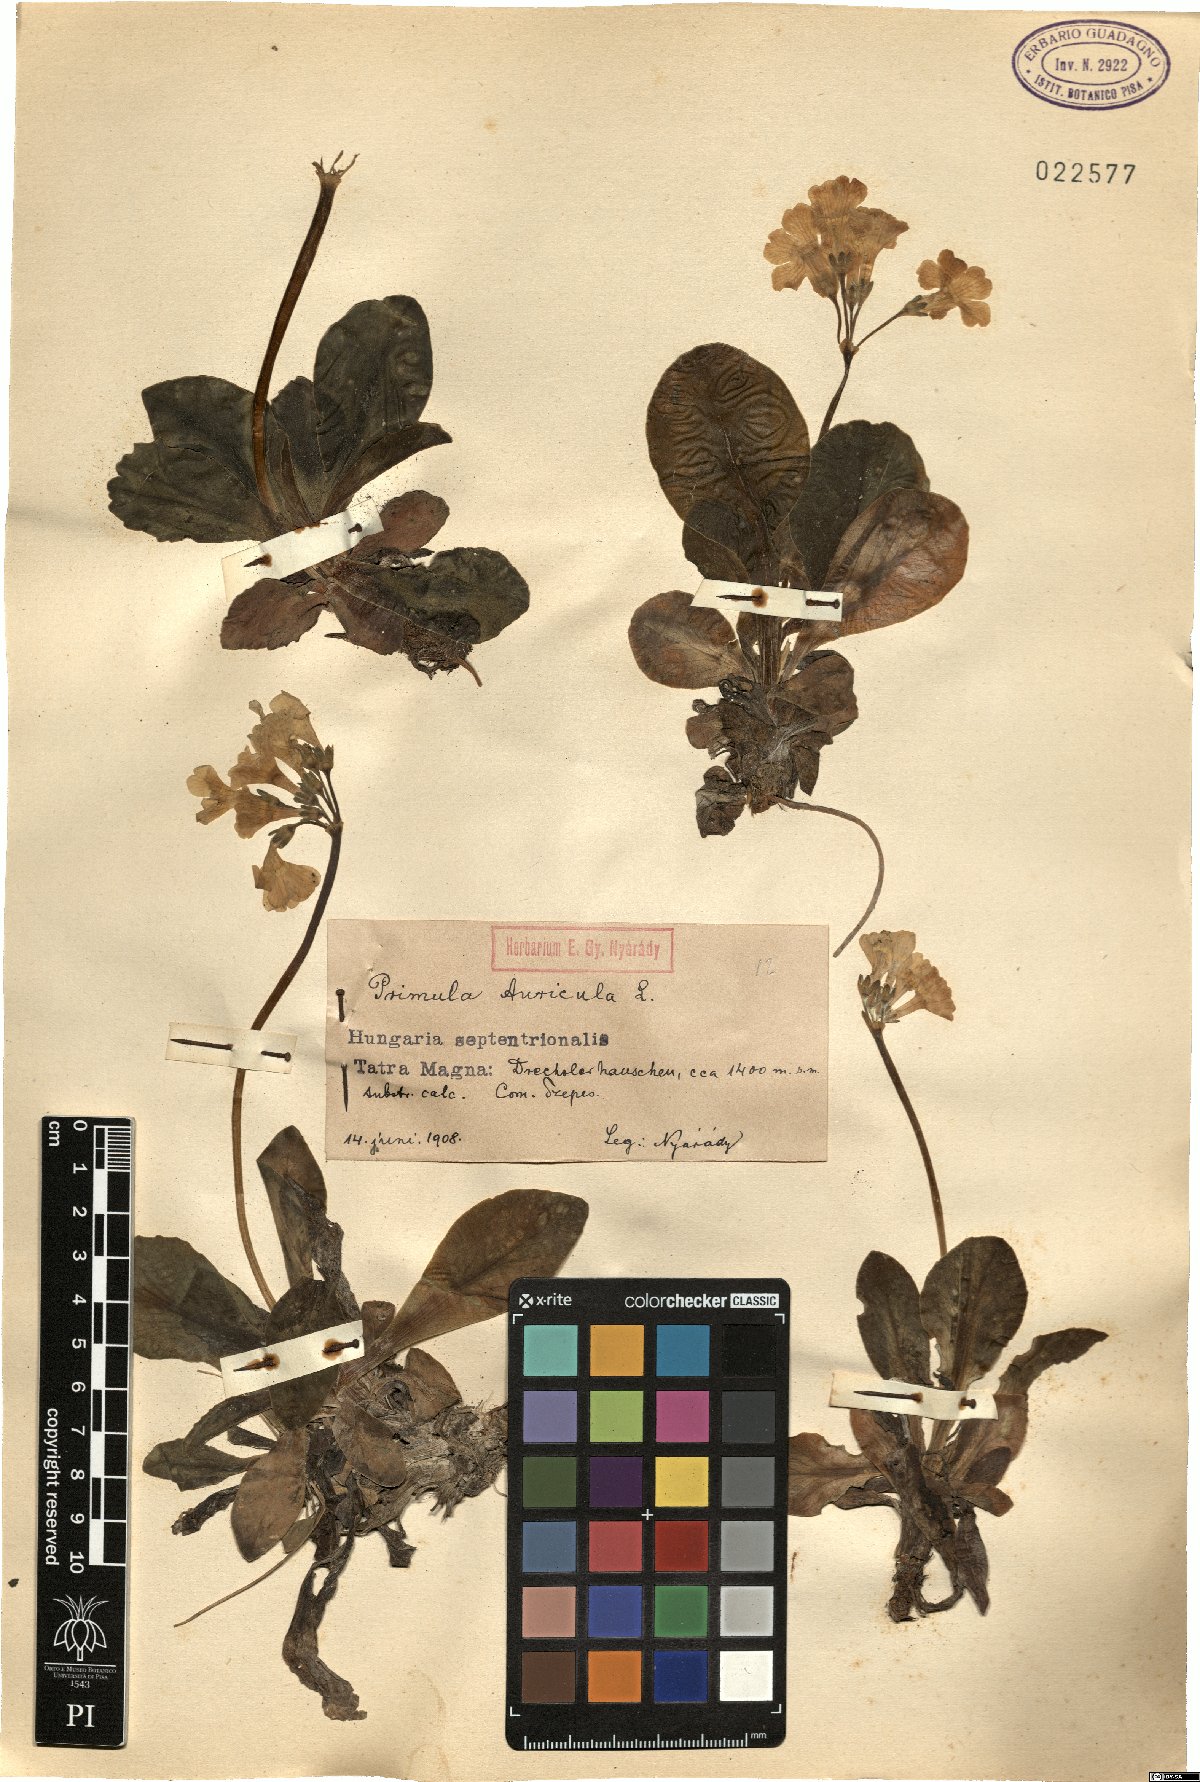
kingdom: Plantae
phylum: Tracheophyta
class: Magnoliopsida
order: Ericales
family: Primulaceae
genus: Primula
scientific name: Primula auricula
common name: Auricula
